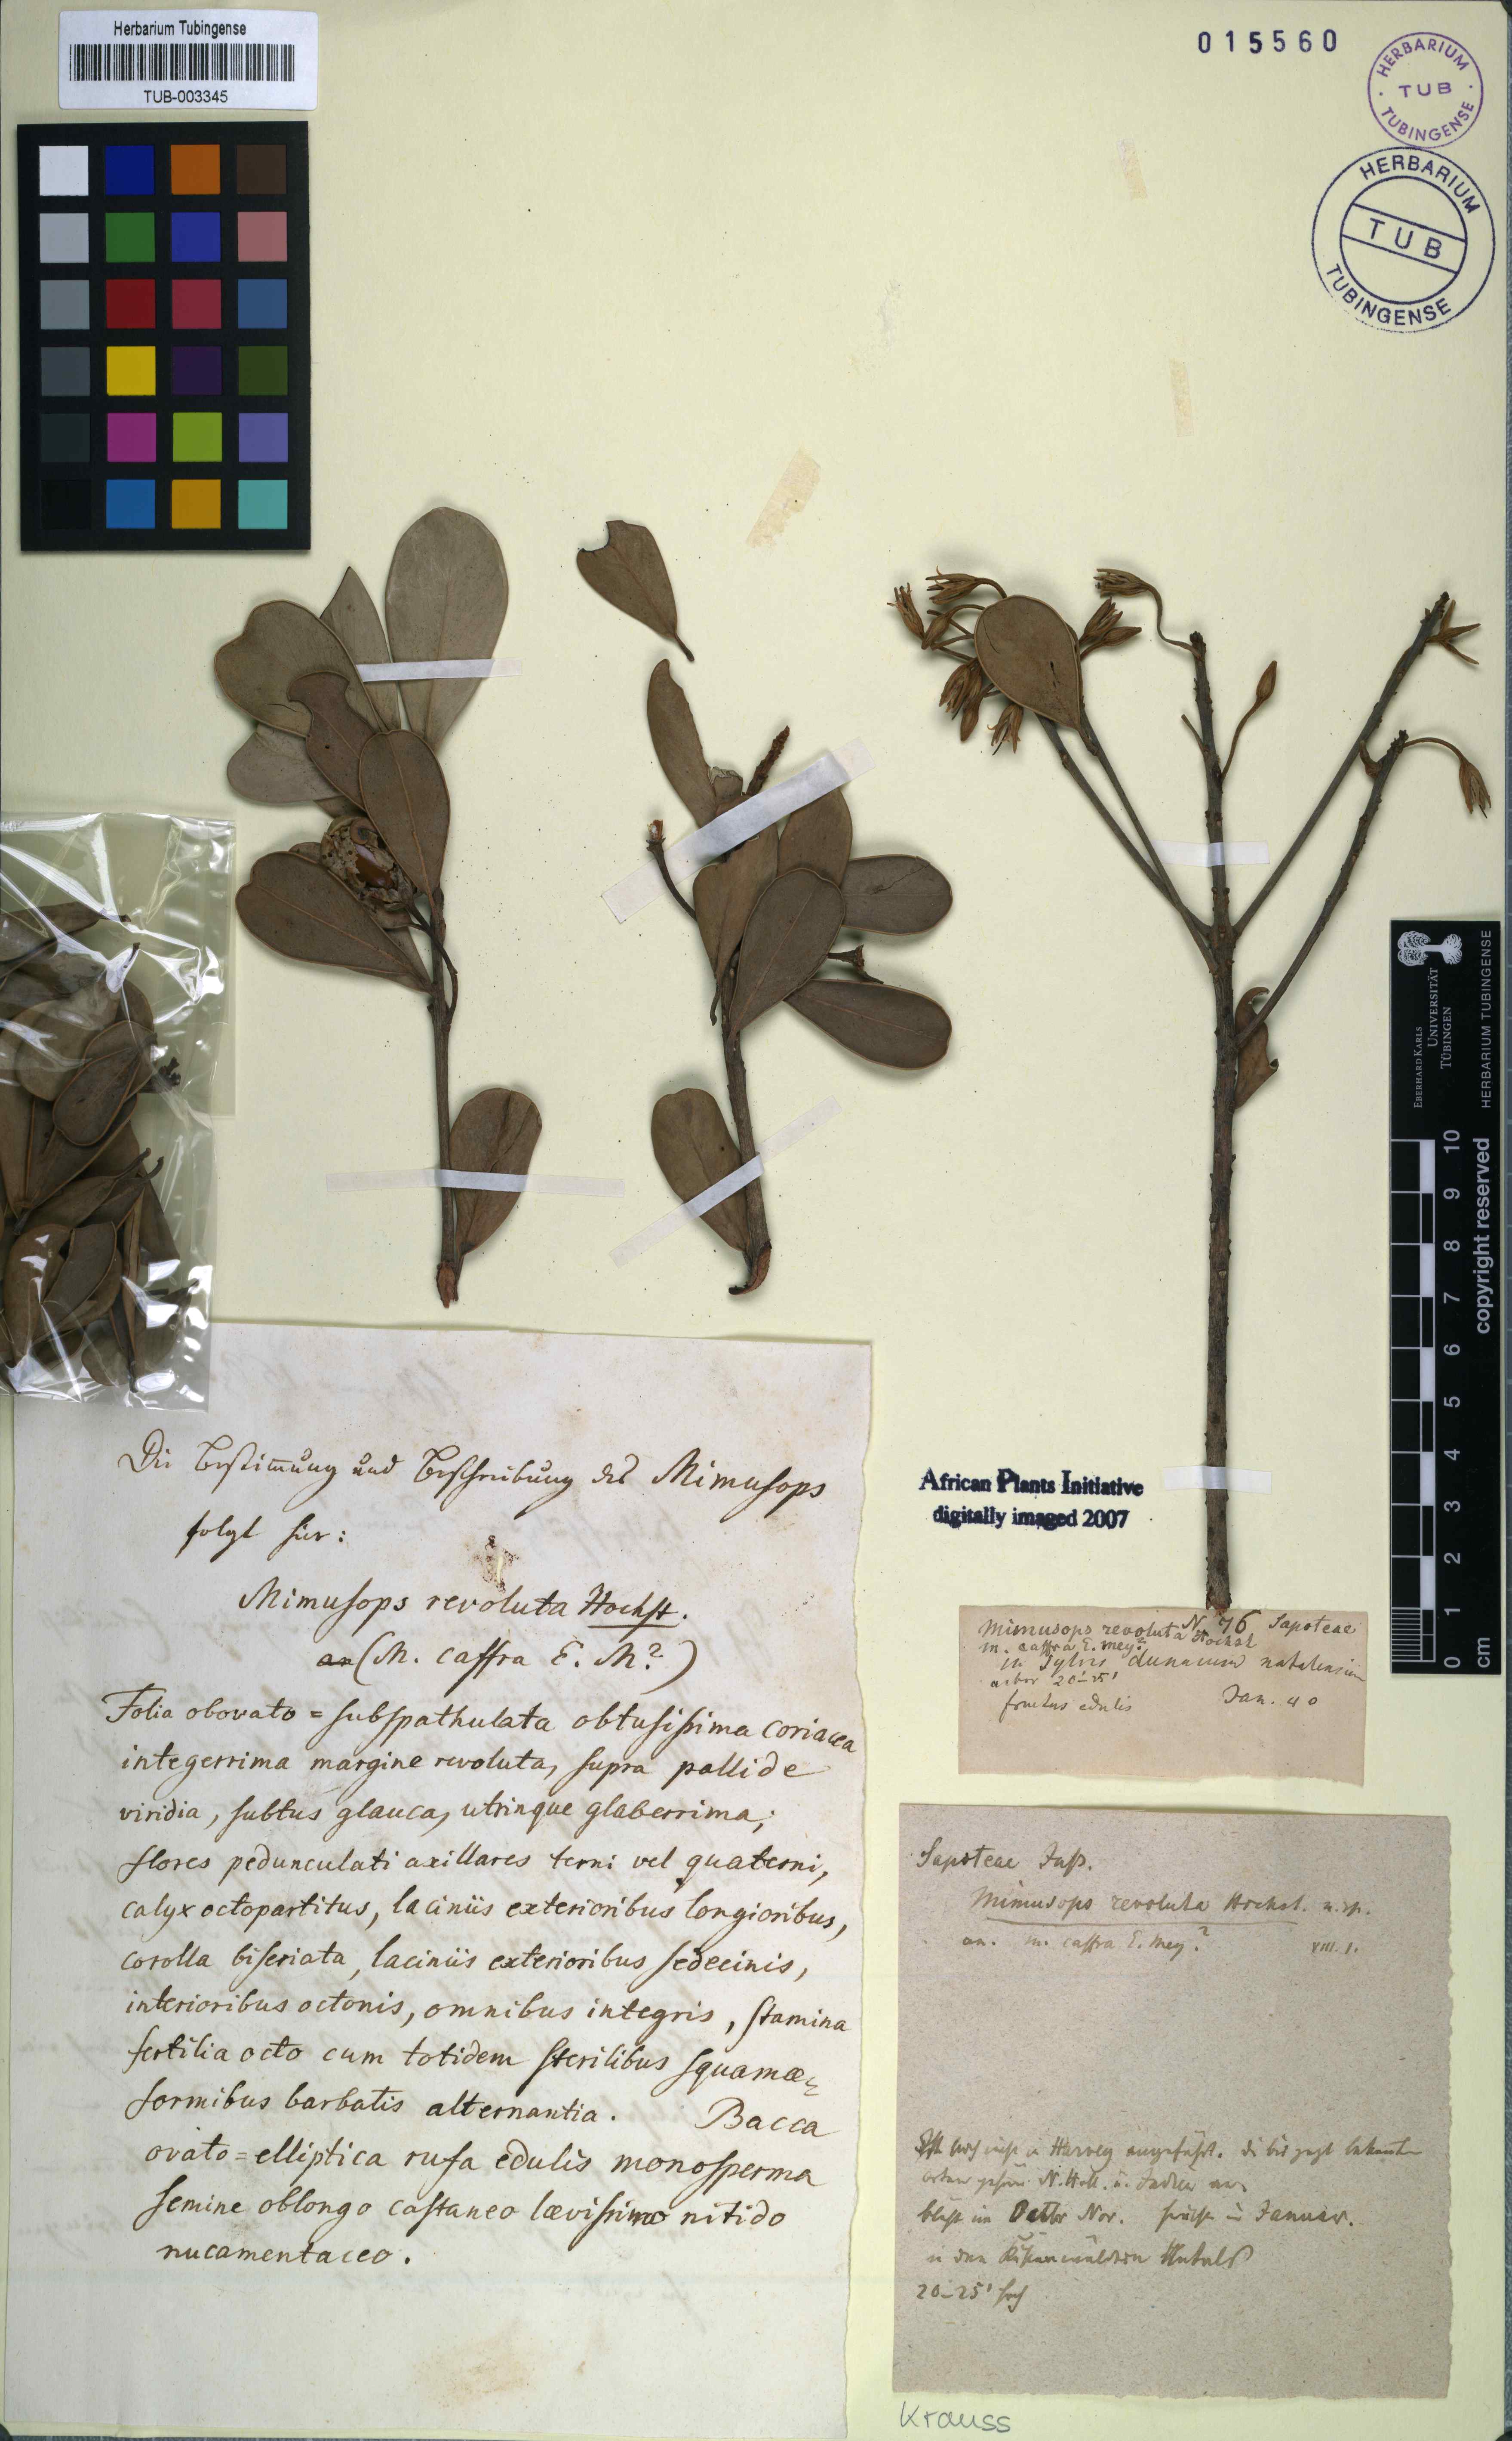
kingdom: Plantae
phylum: Tracheophyta
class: Magnoliopsida
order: Ericales
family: Sapotaceae
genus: Mimusops
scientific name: Mimusops caffra
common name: Coastal red milkwood
